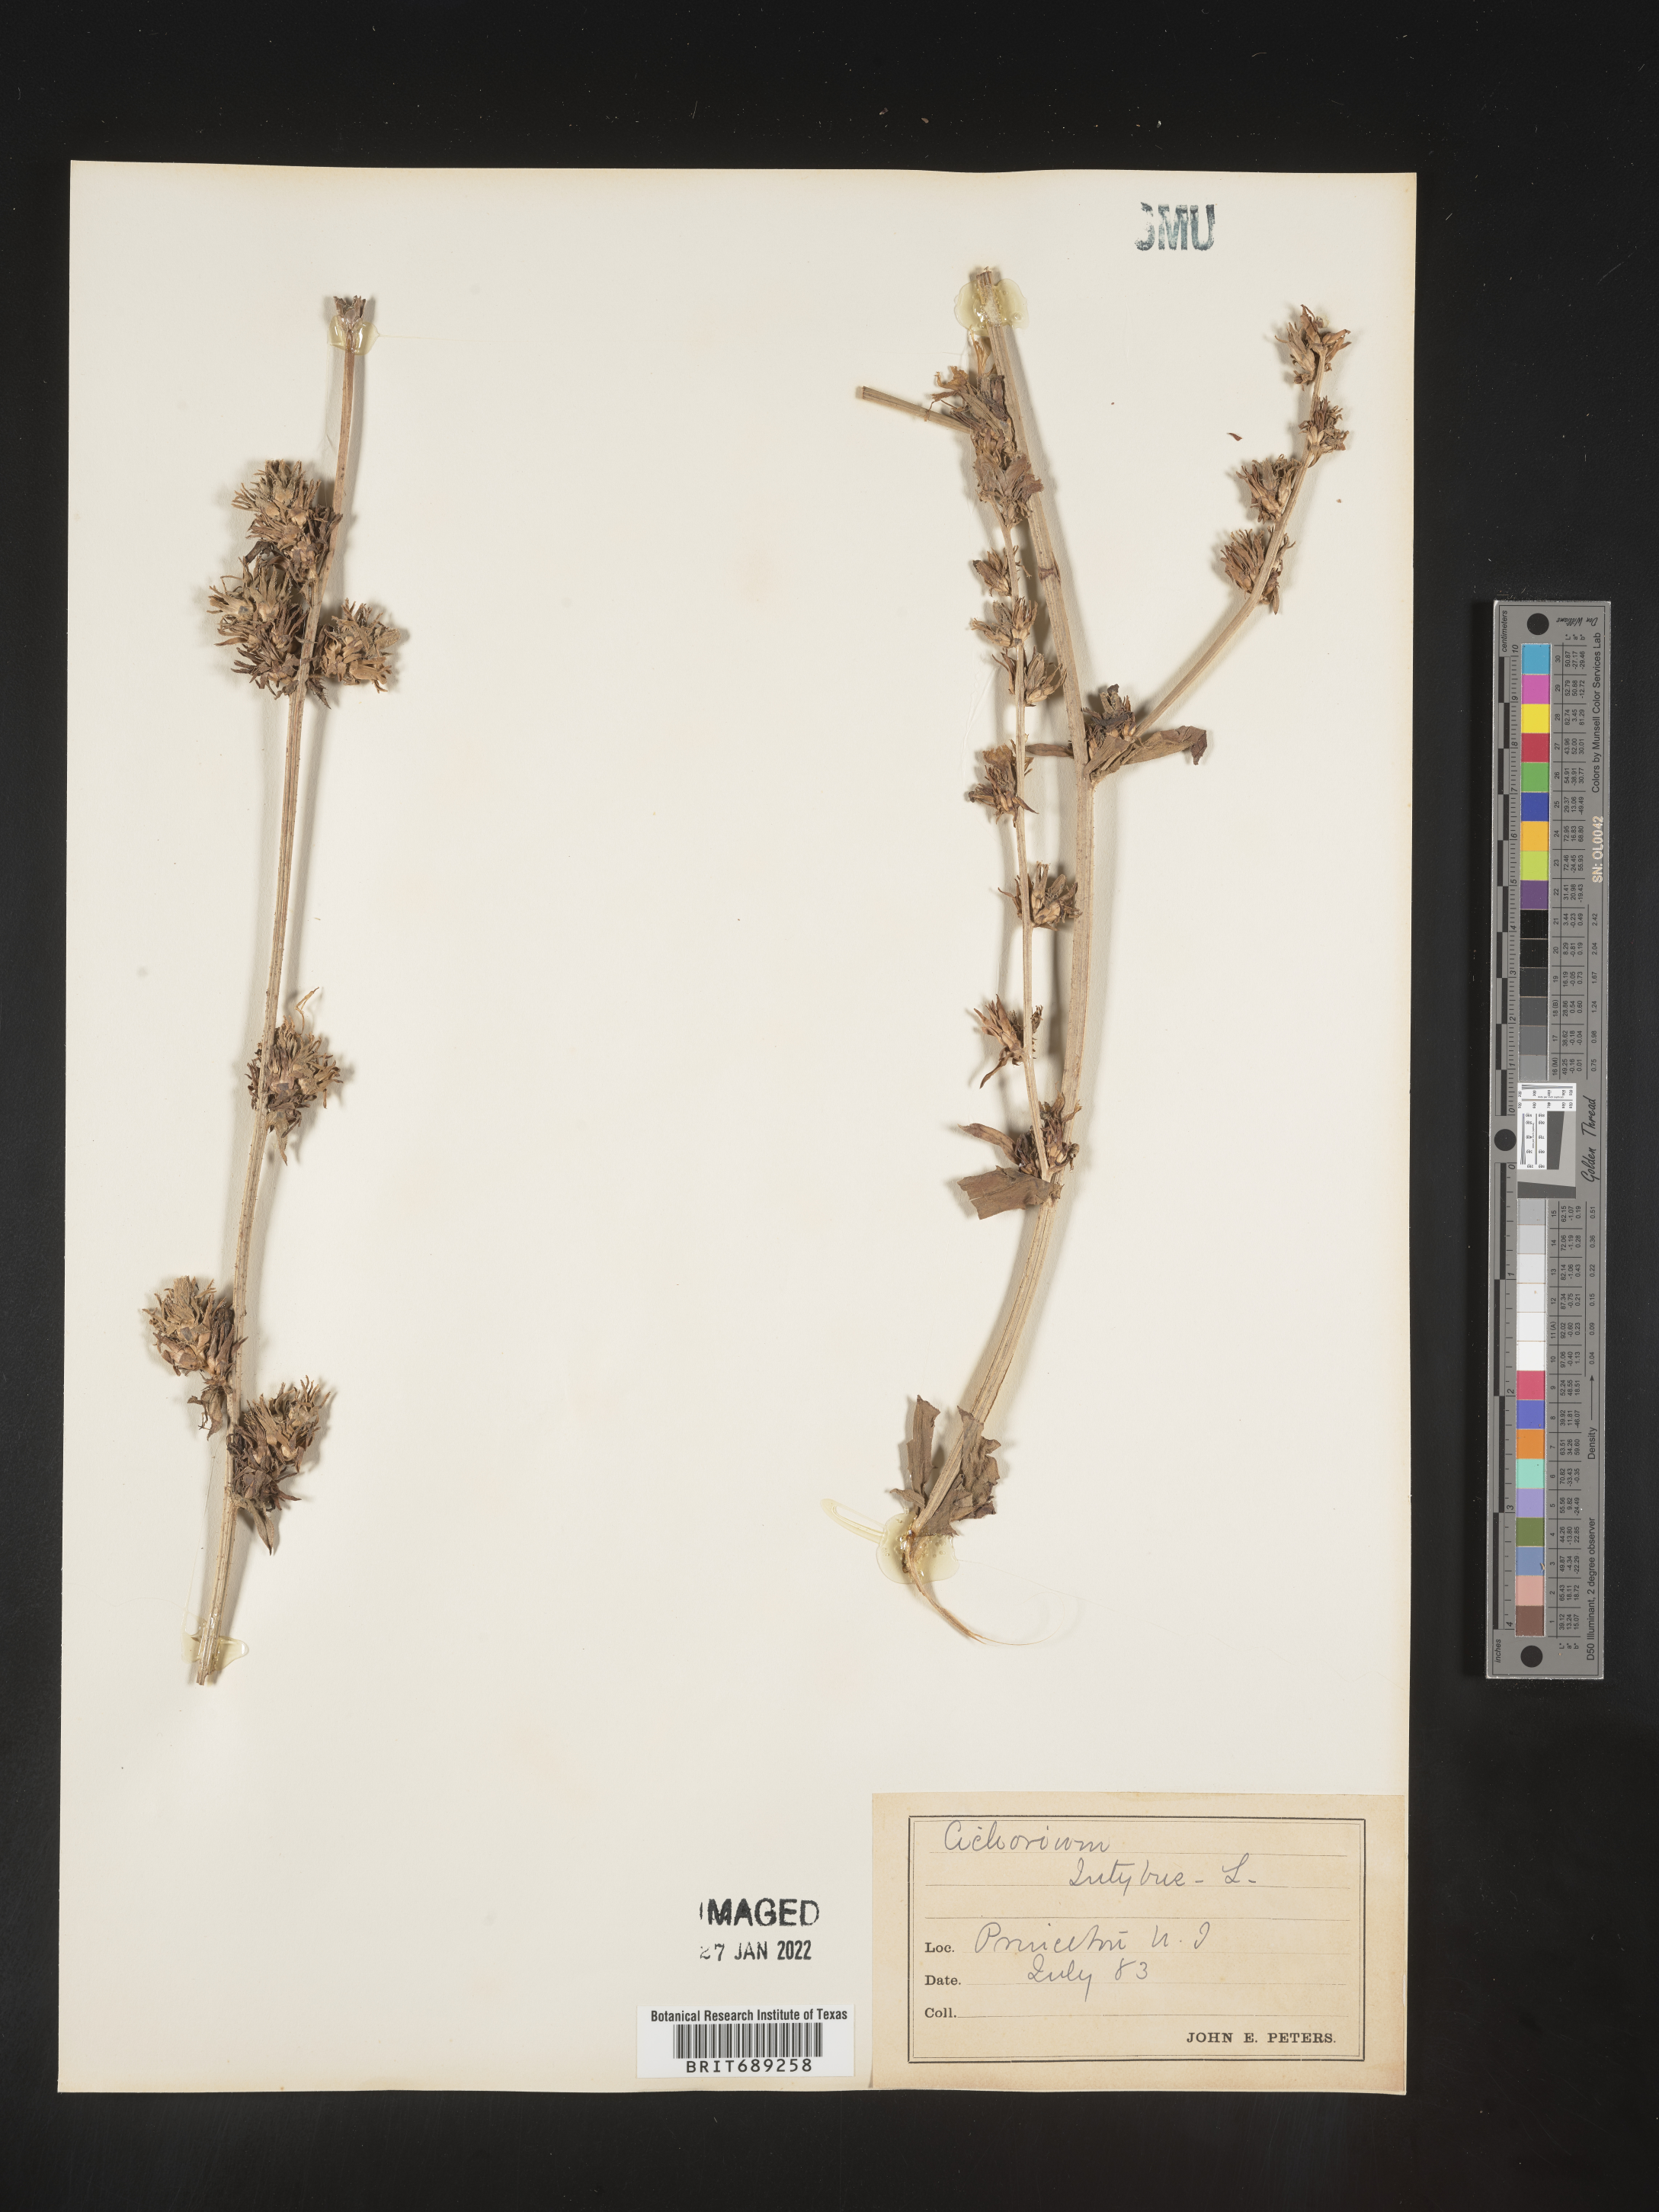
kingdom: Plantae
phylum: Tracheophyta
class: Magnoliopsida
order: Asterales
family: Asteraceae
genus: Cichorium
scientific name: Cichorium intybus
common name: Chicory
